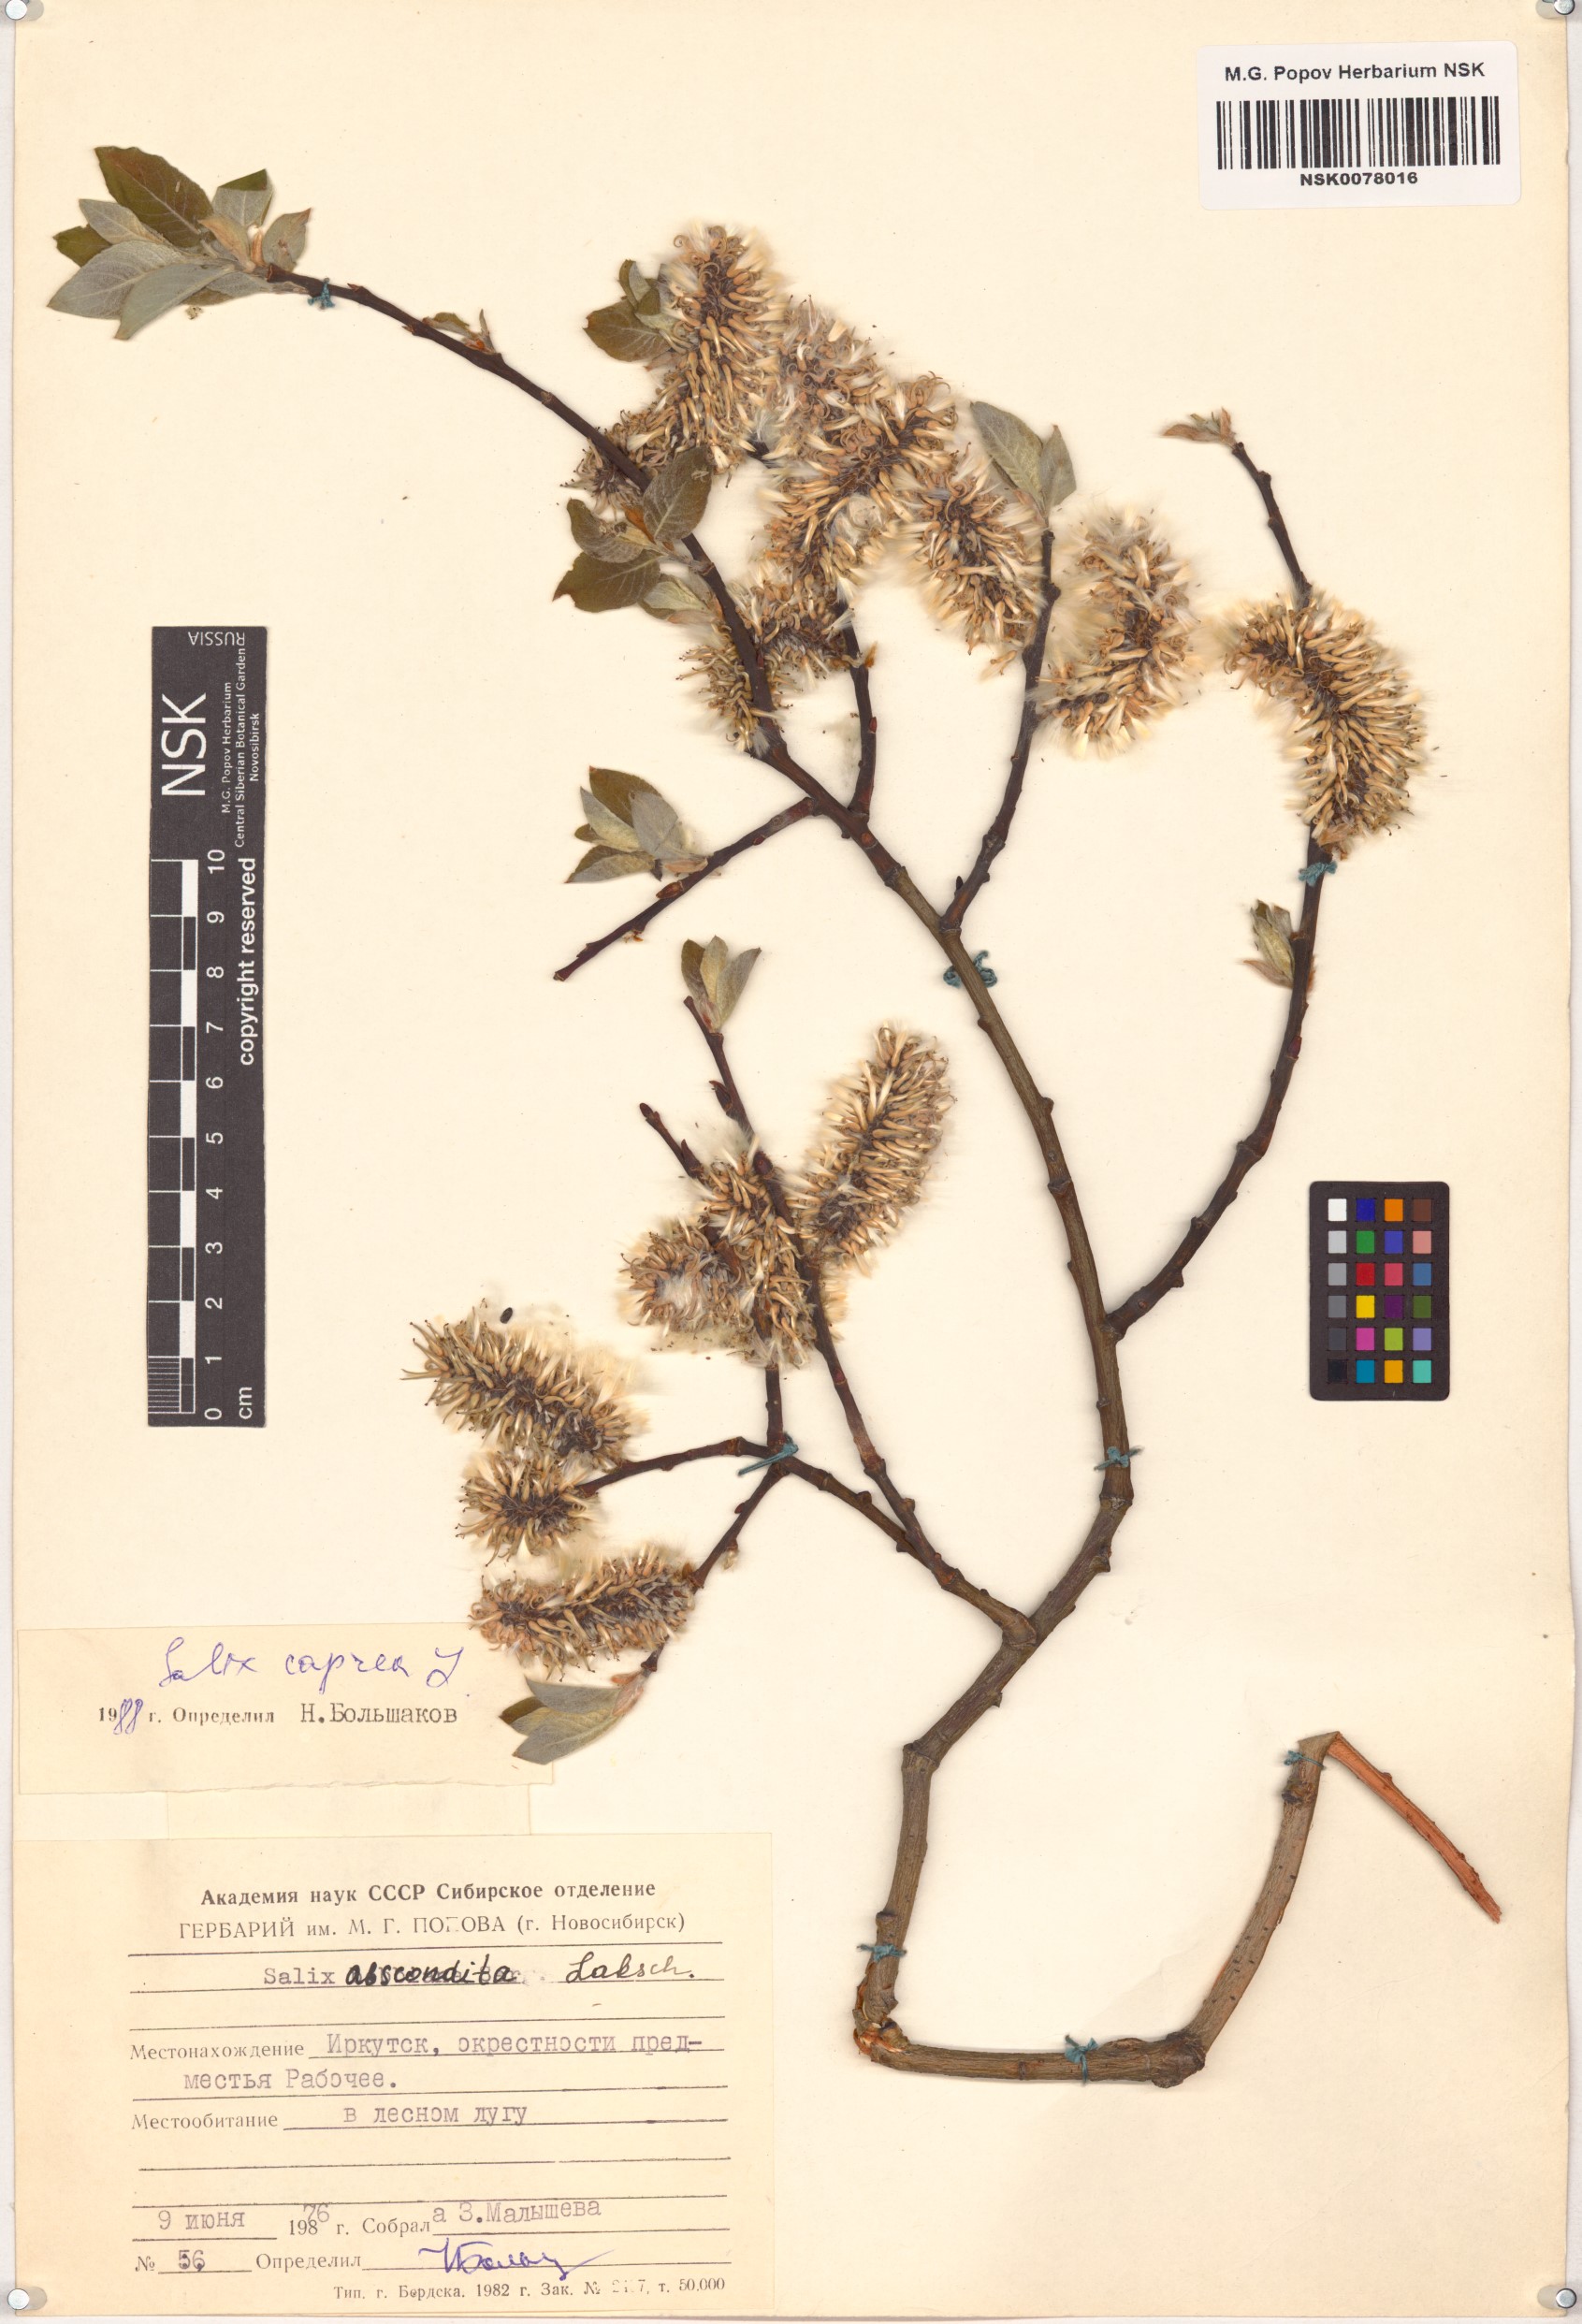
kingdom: Plantae
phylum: Tracheophyta
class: Magnoliopsida
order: Malpighiales
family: Salicaceae
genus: Salix
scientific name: Salix caprea
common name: Goat willow
